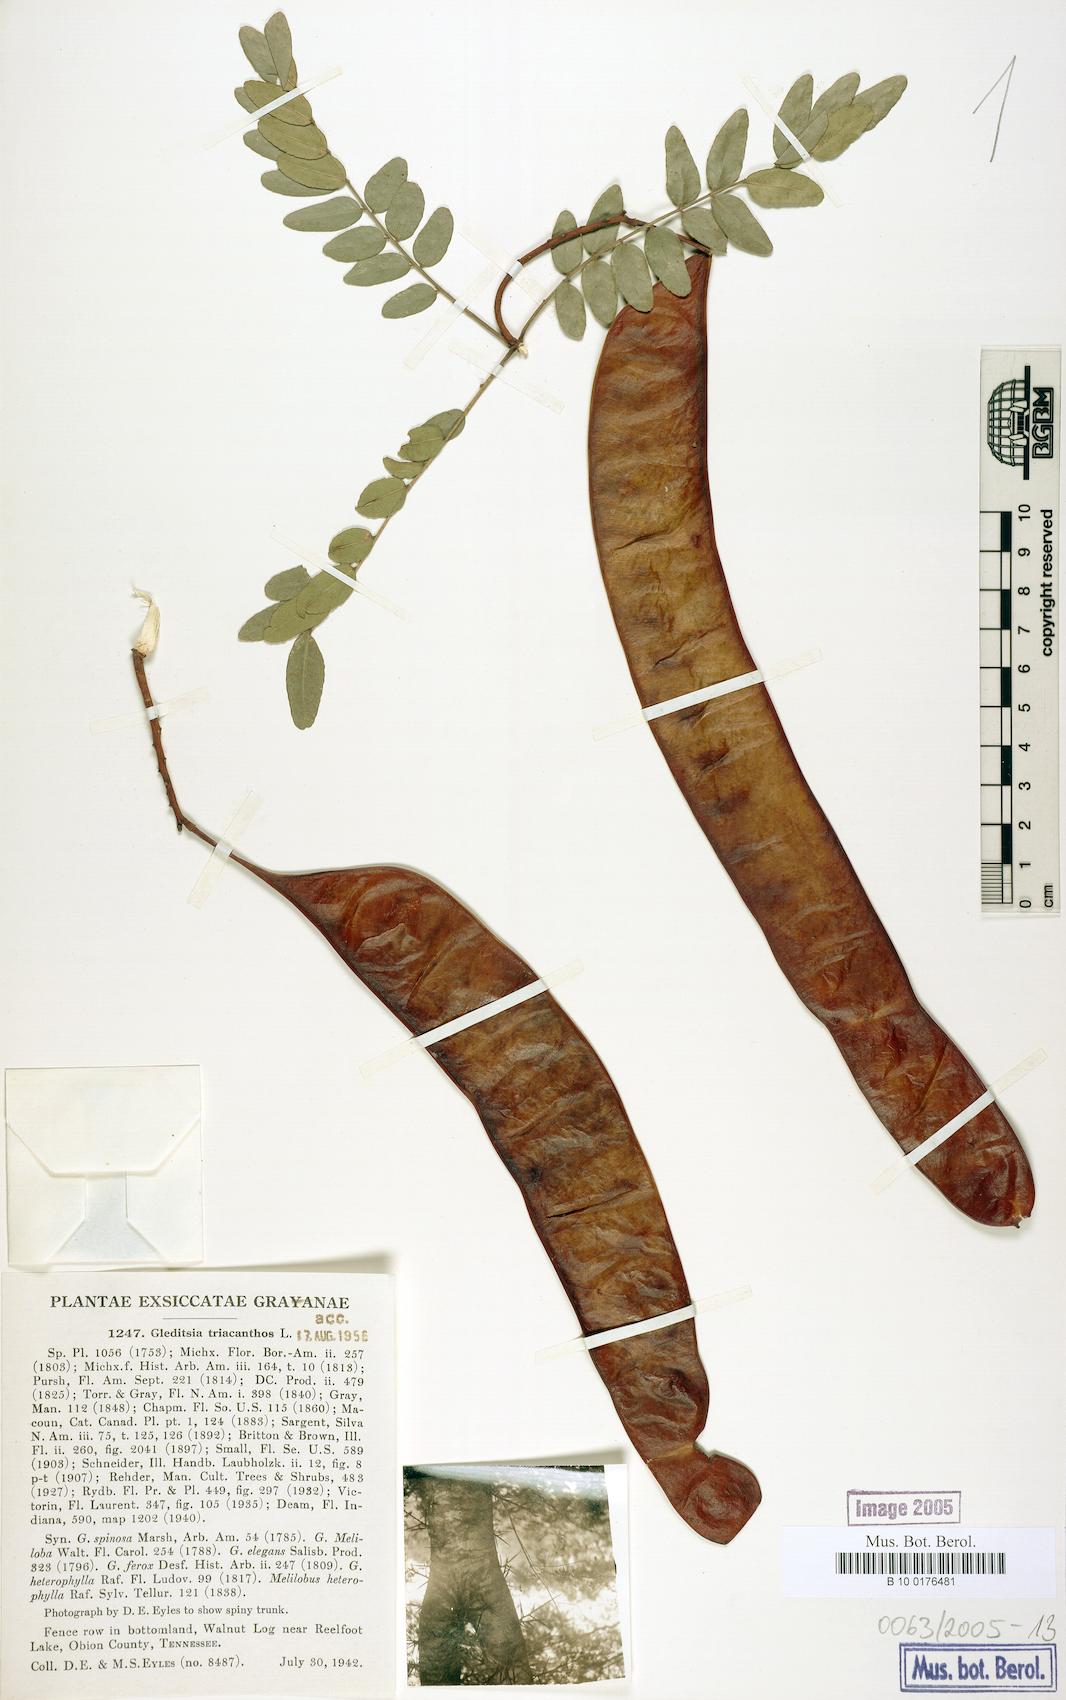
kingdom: Plantae
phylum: Tracheophyta
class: Magnoliopsida
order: Fabales
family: Fabaceae
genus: Gleditsia
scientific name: Gleditsia triacanthos
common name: Common honeylocust
